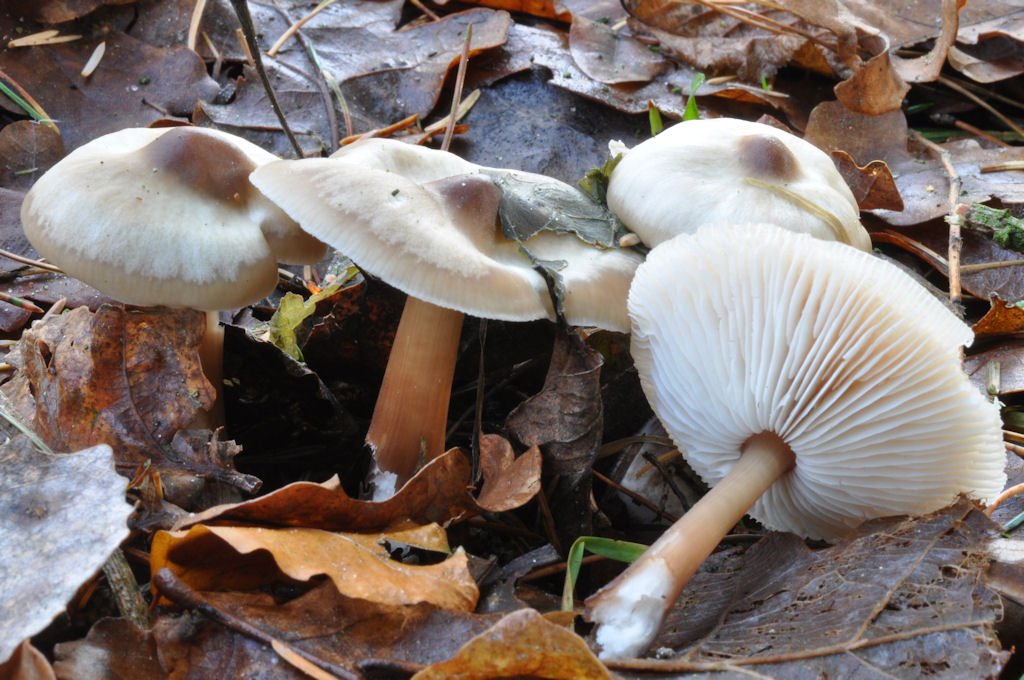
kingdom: Fungi
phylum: Basidiomycota
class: Agaricomycetes
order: Agaricales
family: Omphalotaceae
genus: Rhodocollybia
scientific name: Rhodocollybia asema
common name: horngrå fladhat
